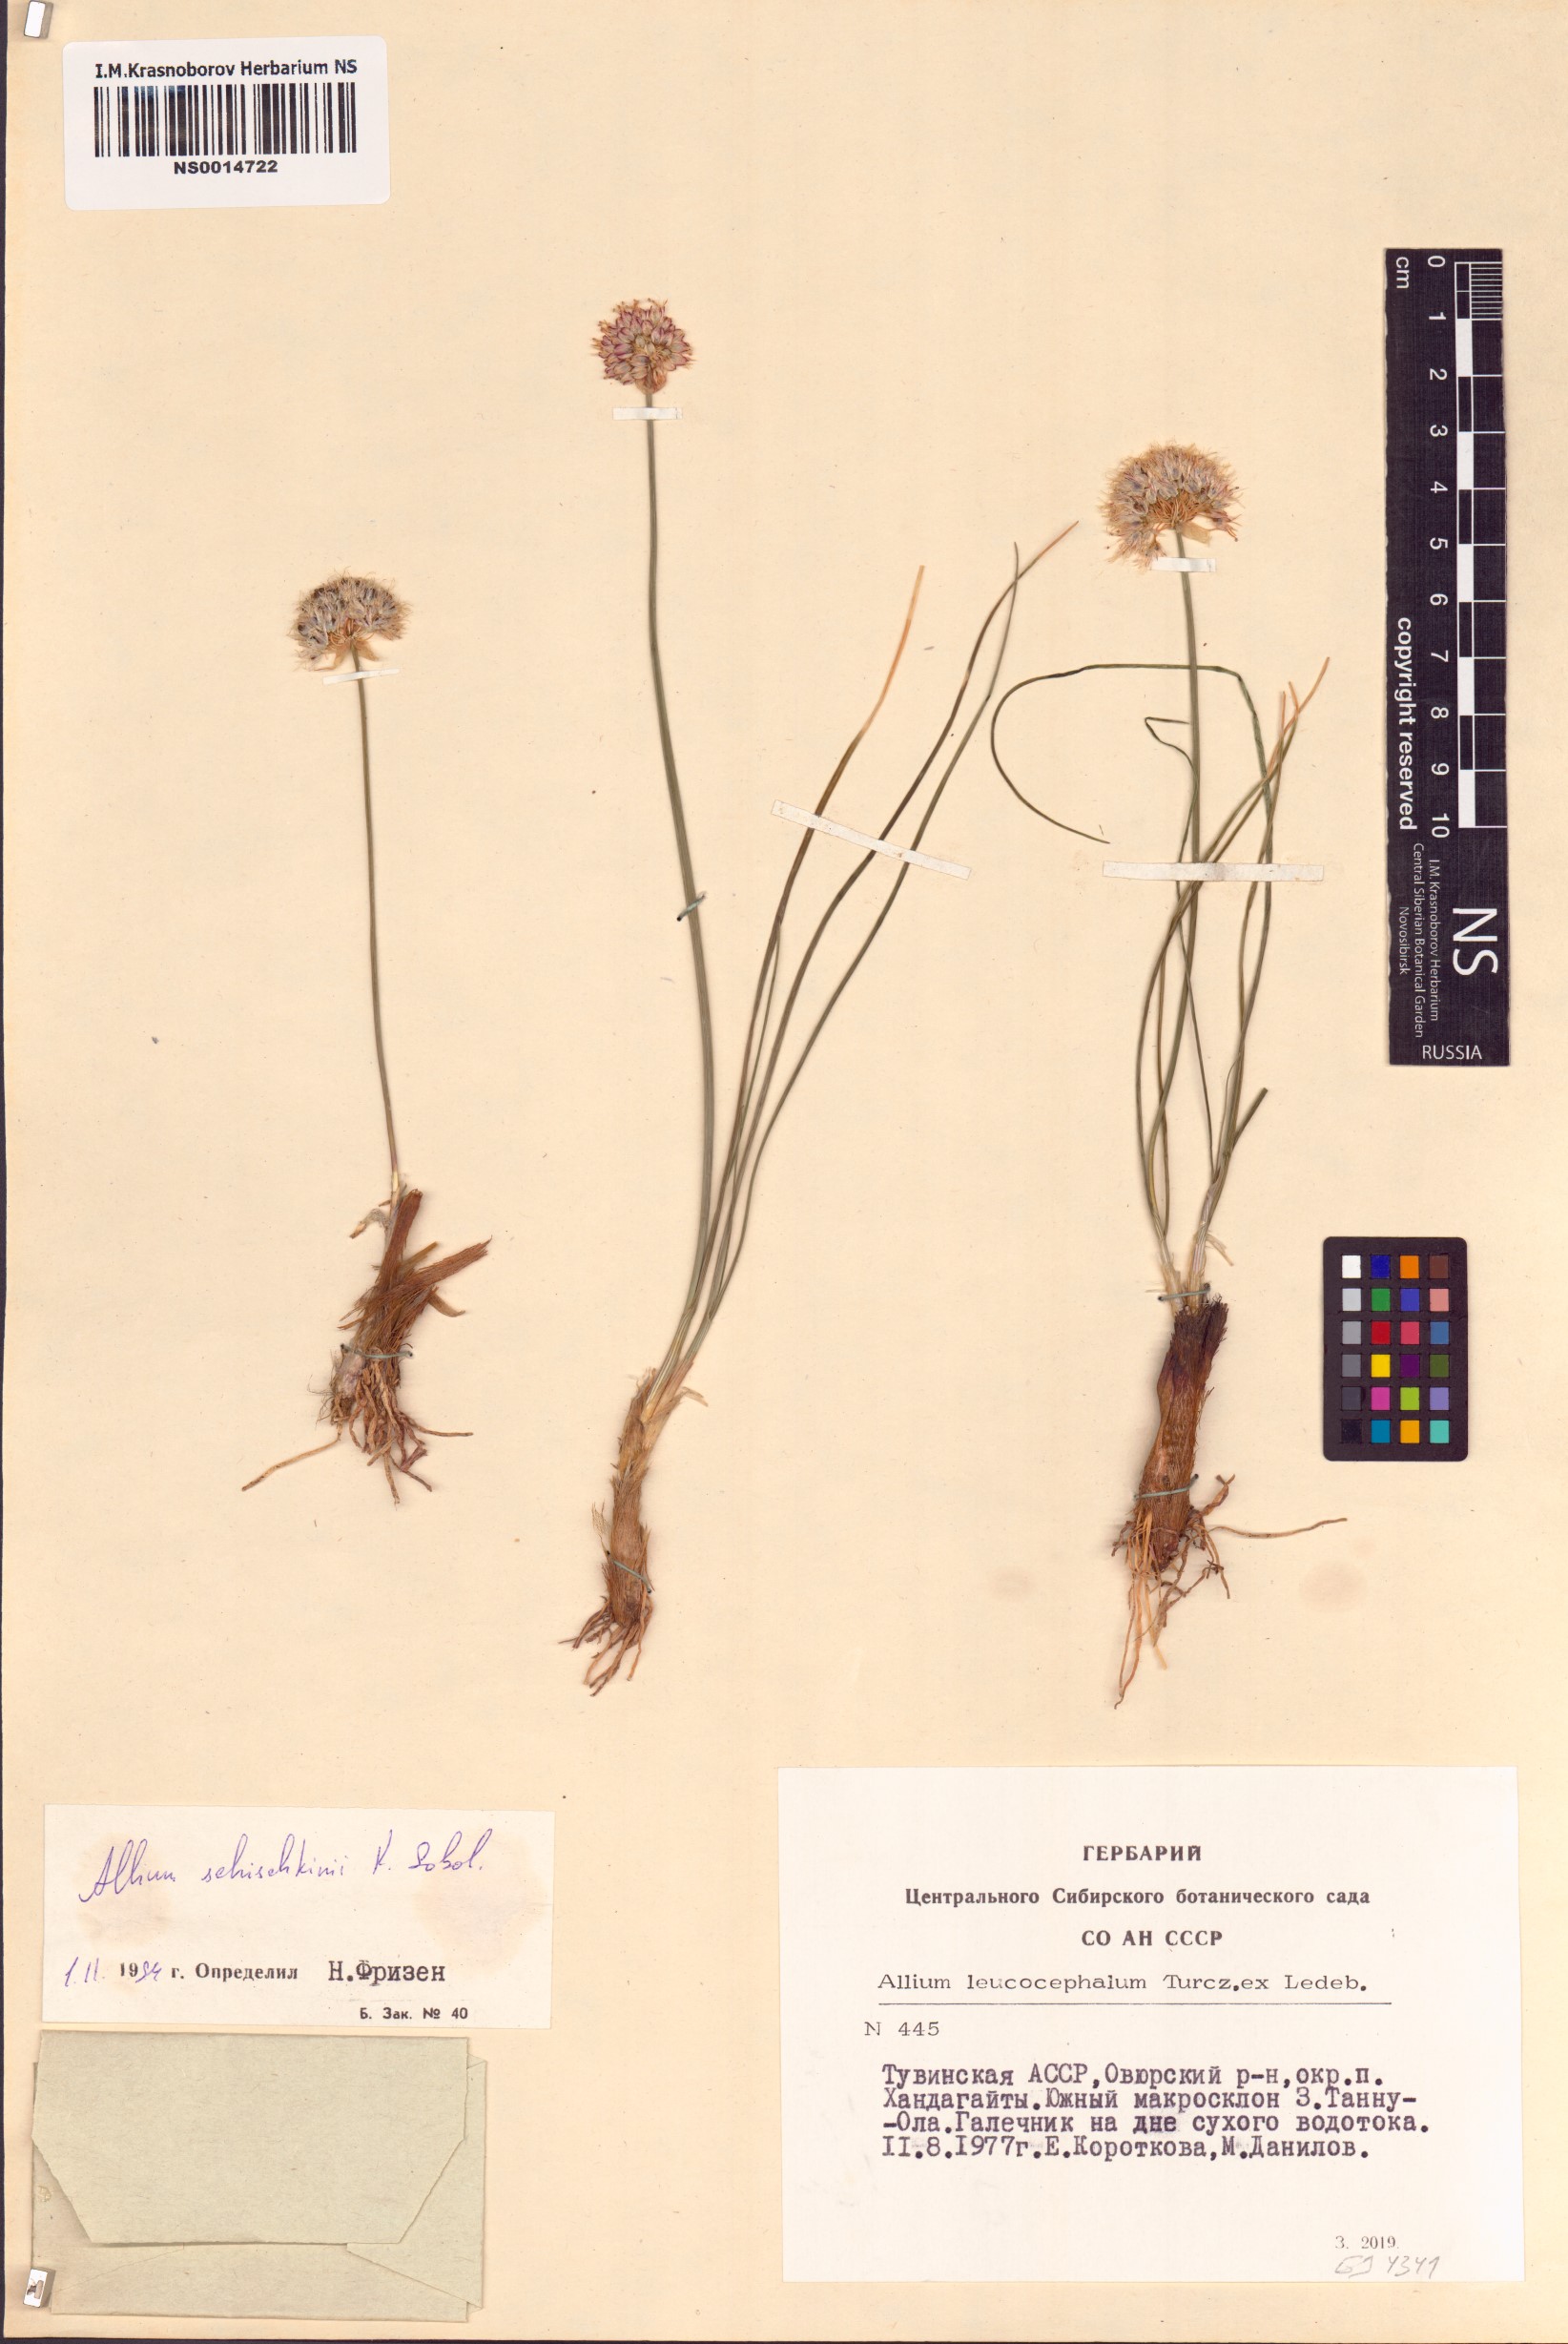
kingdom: Plantae
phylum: Tracheophyta
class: Liliopsida
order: Asparagales
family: Amaryllidaceae
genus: Allium
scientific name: Allium schischkinii
